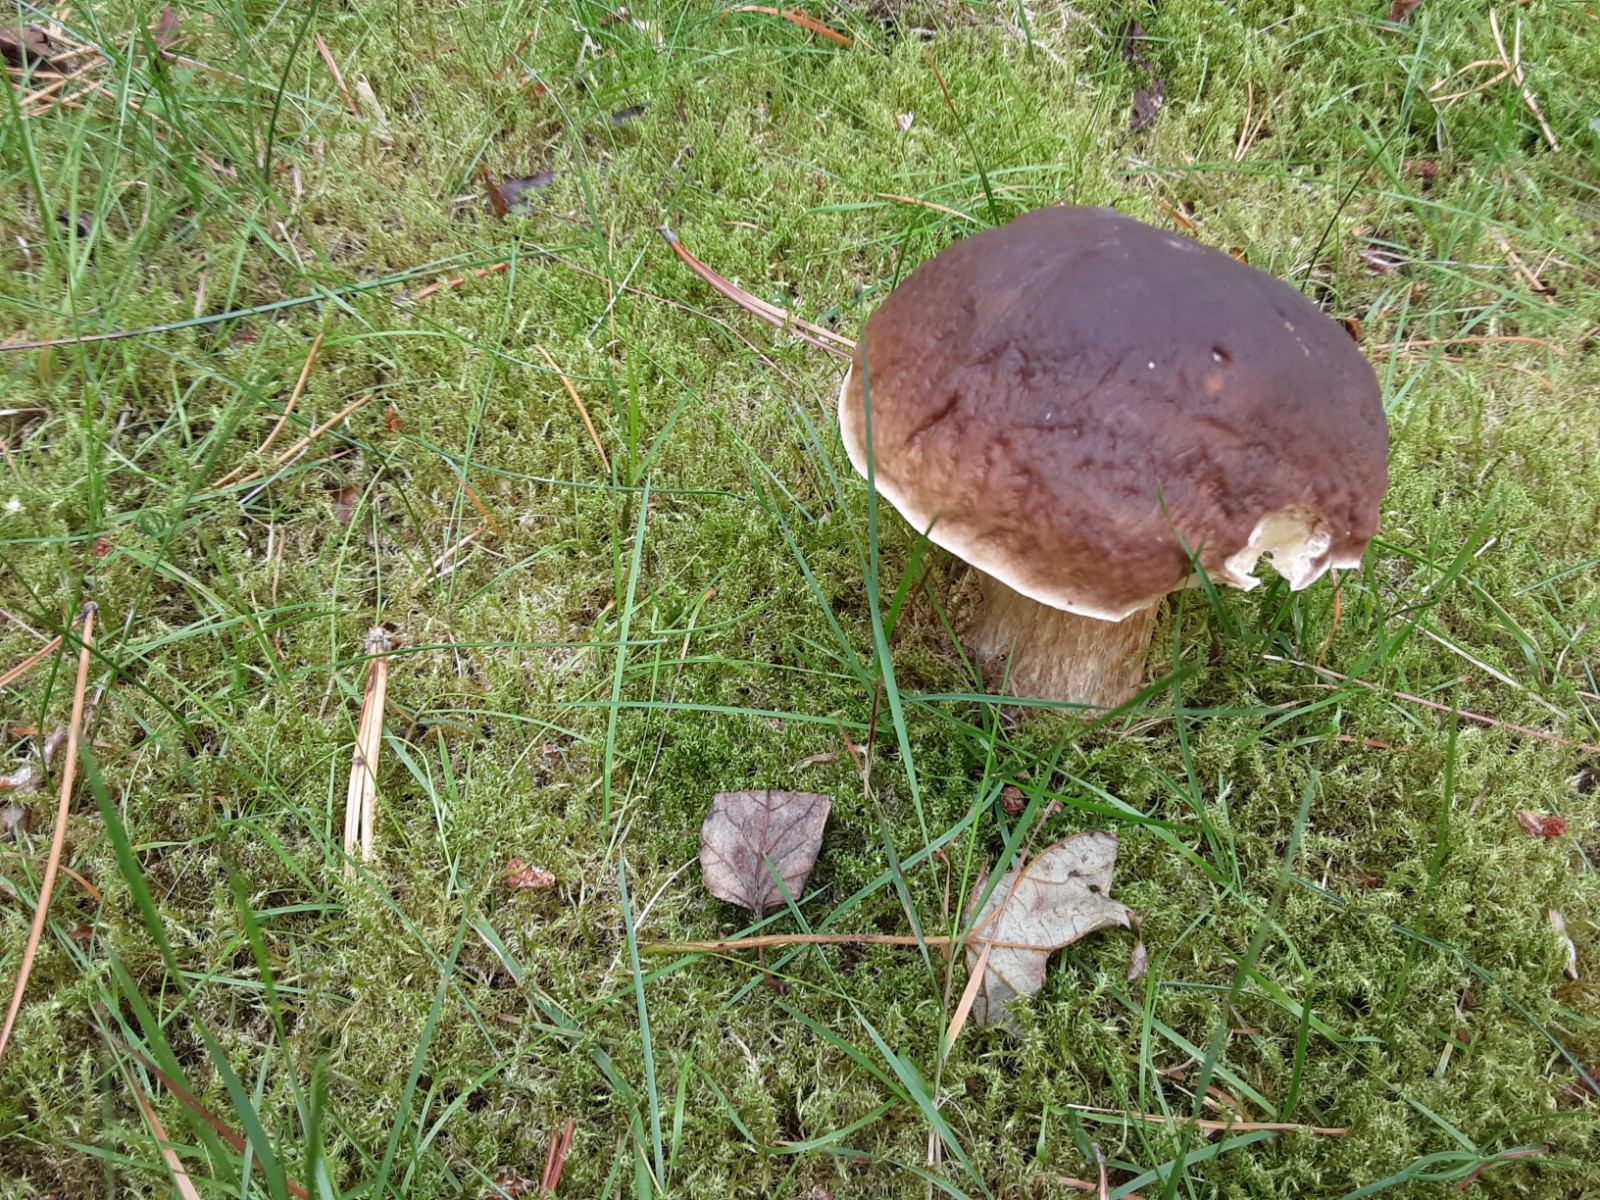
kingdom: Fungi
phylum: Basidiomycota
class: Agaricomycetes
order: Boletales
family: Boletaceae
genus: Boletus
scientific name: Boletus edulis
